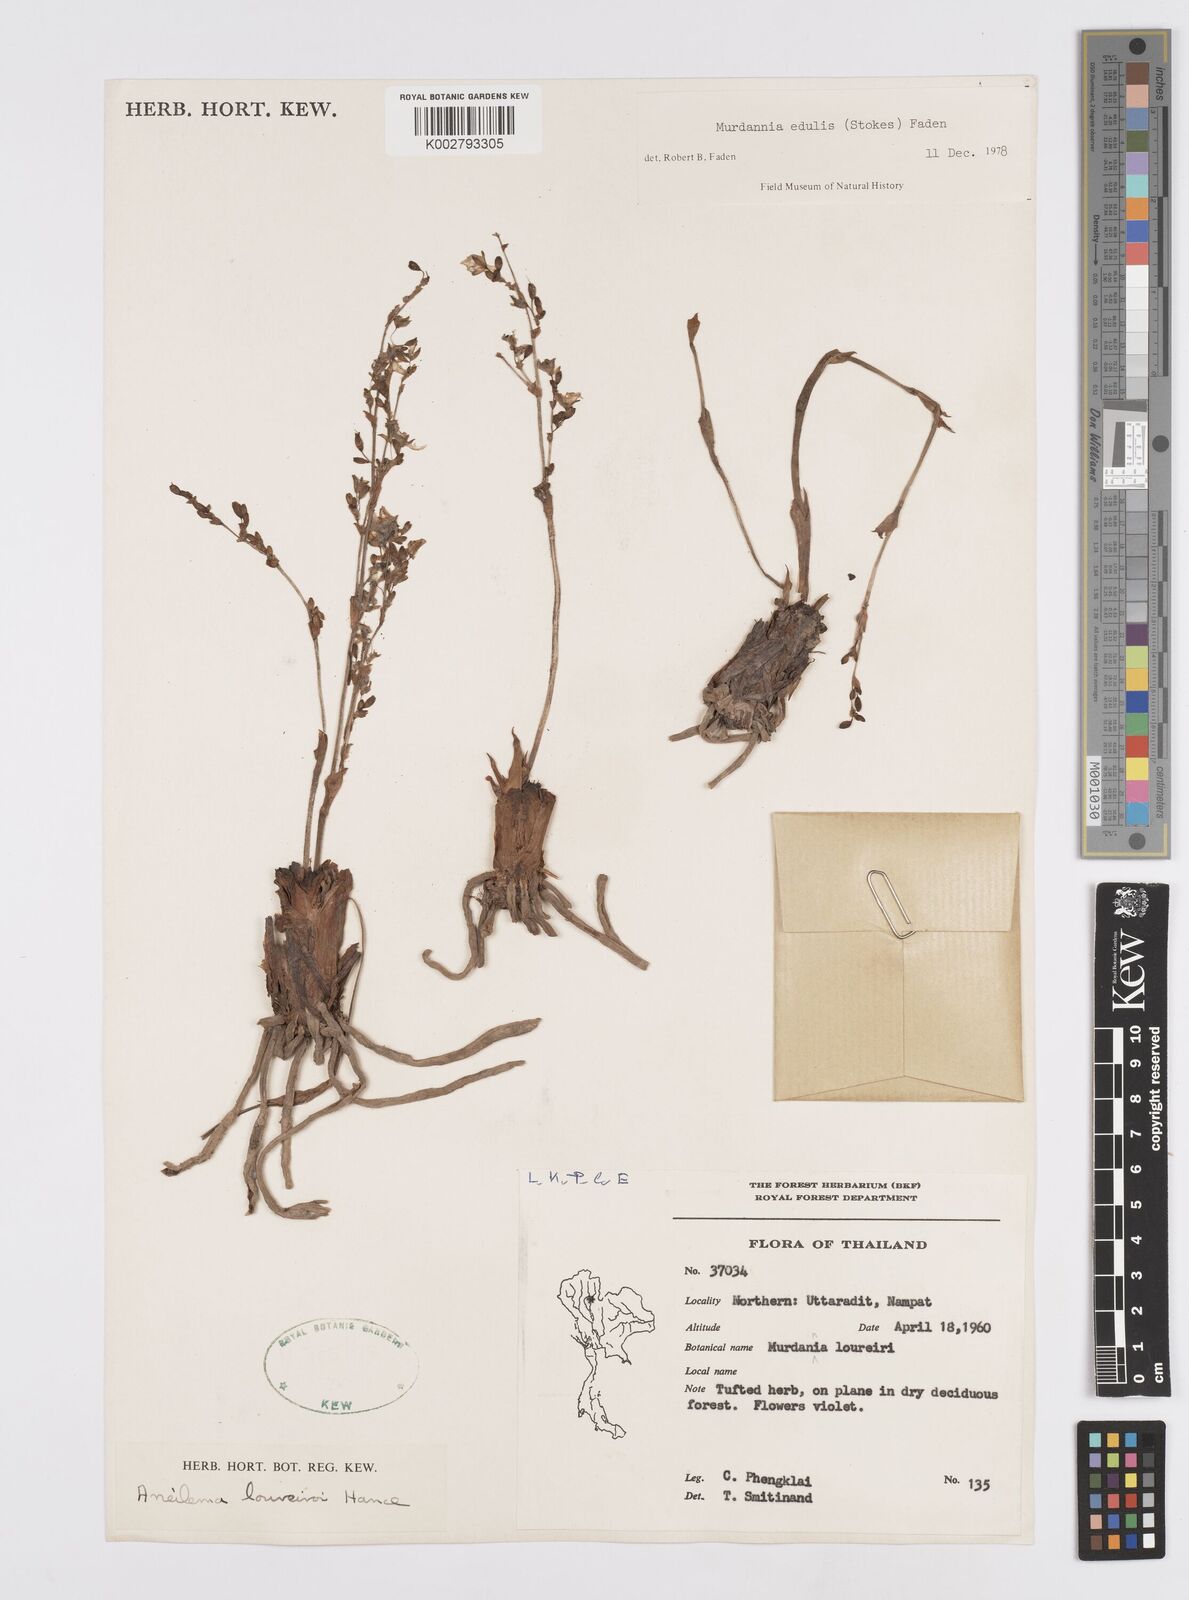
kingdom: Plantae
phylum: Tracheophyta
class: Liliopsida
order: Commelinales
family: Commelinaceae
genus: Murdannia
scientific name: Murdannia edulis
